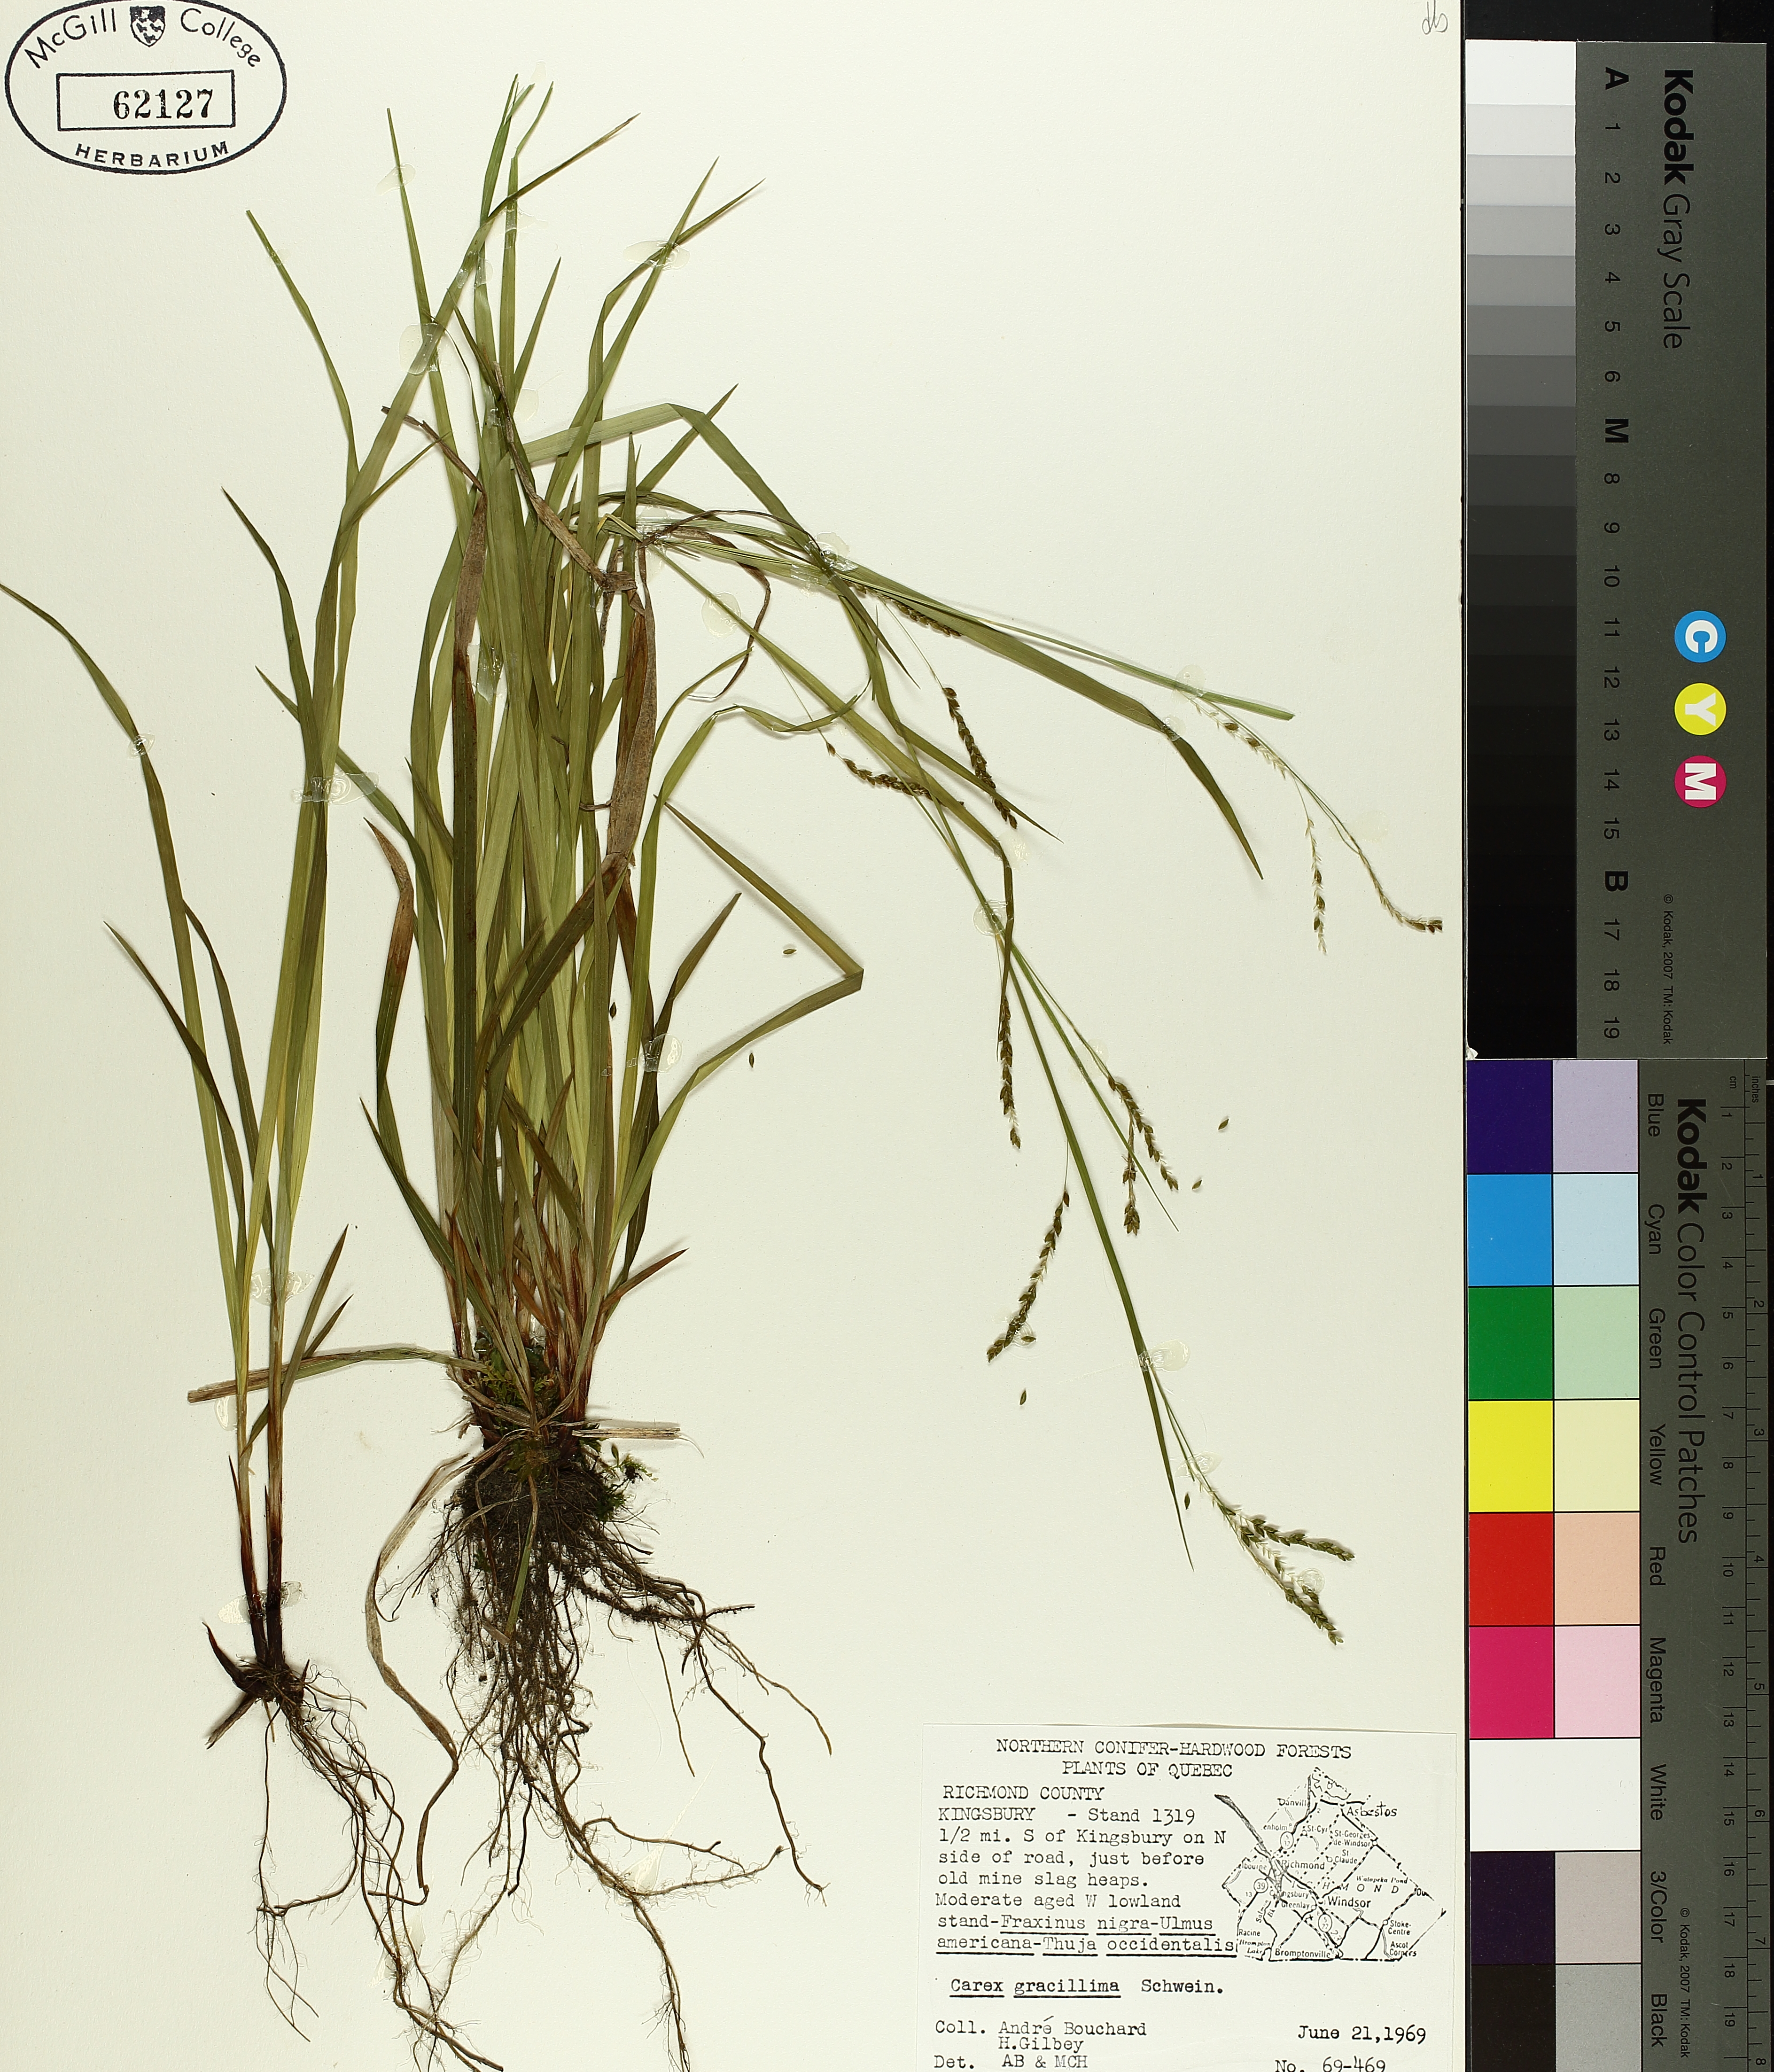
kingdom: Plantae
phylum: Tracheophyta
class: Liliopsida
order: Poales
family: Cyperaceae
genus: Carex
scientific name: Carex gracillima
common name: Graceful sedge
